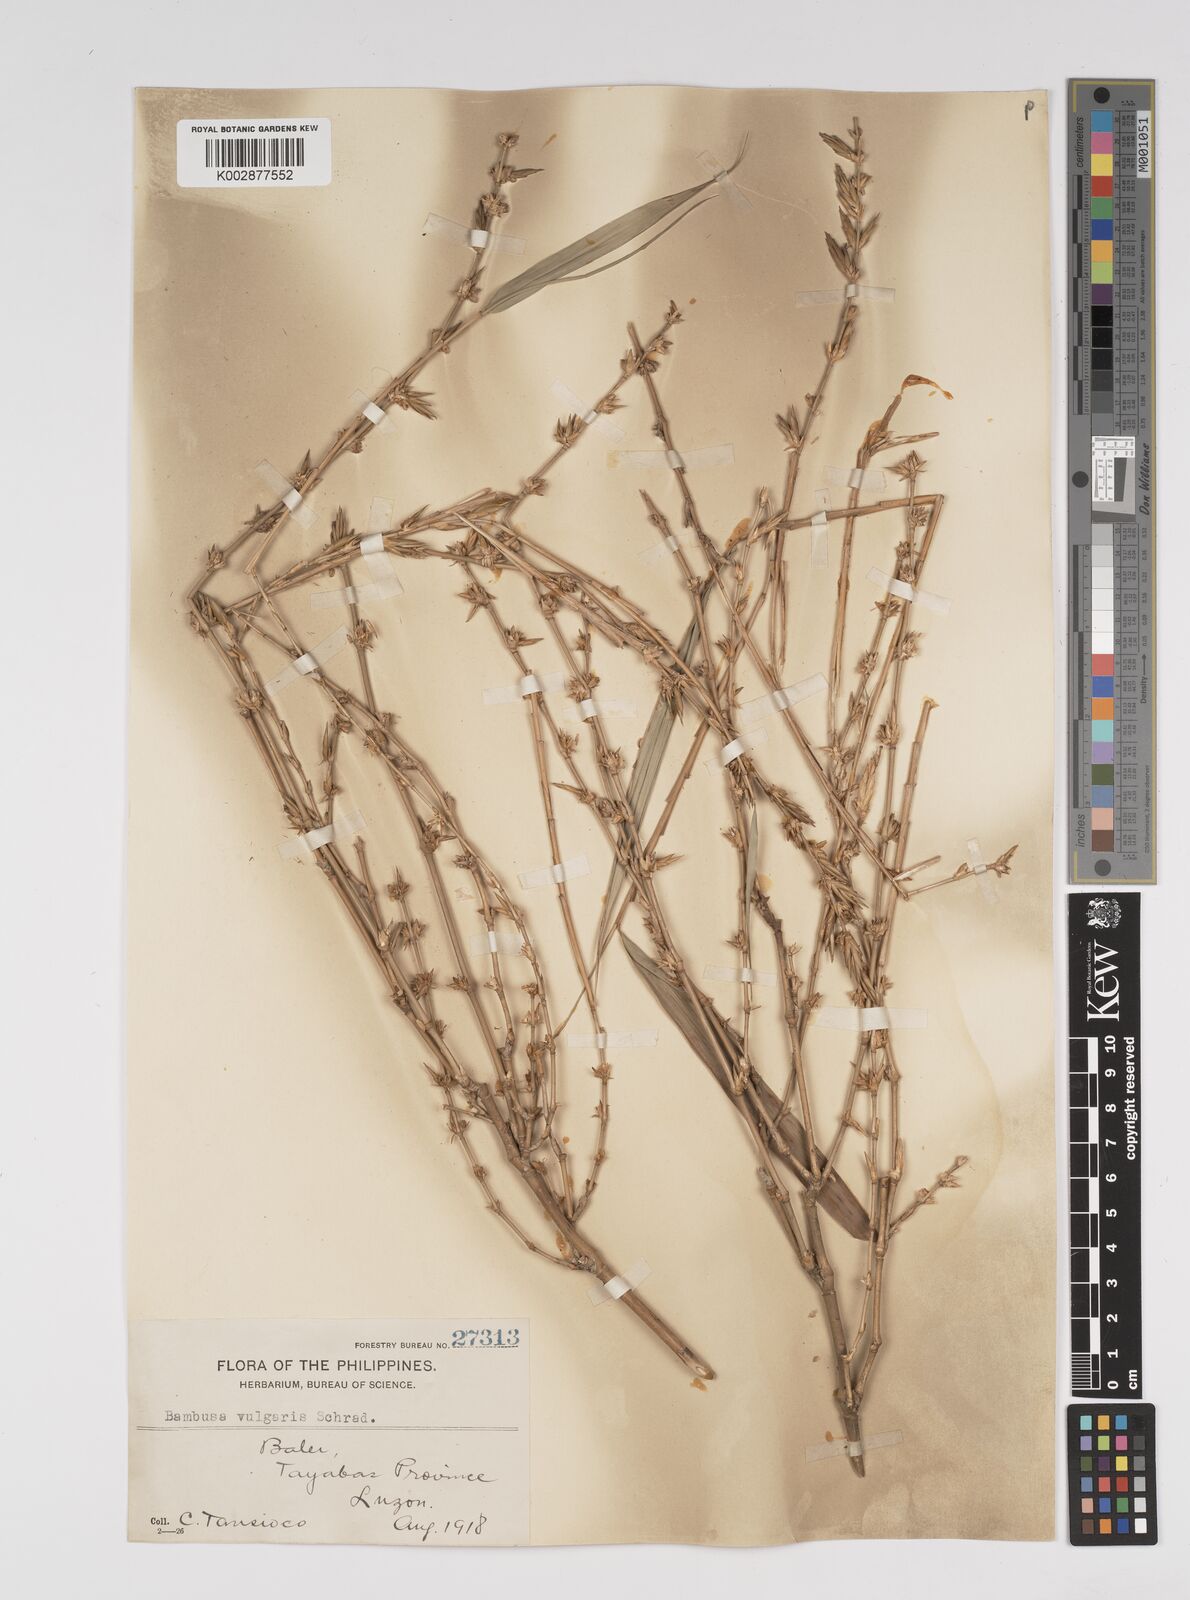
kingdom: Plantae
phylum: Tracheophyta
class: Liliopsida
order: Poales
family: Poaceae
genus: Bambusa
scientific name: Bambusa vulgaris
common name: Common bamboo
